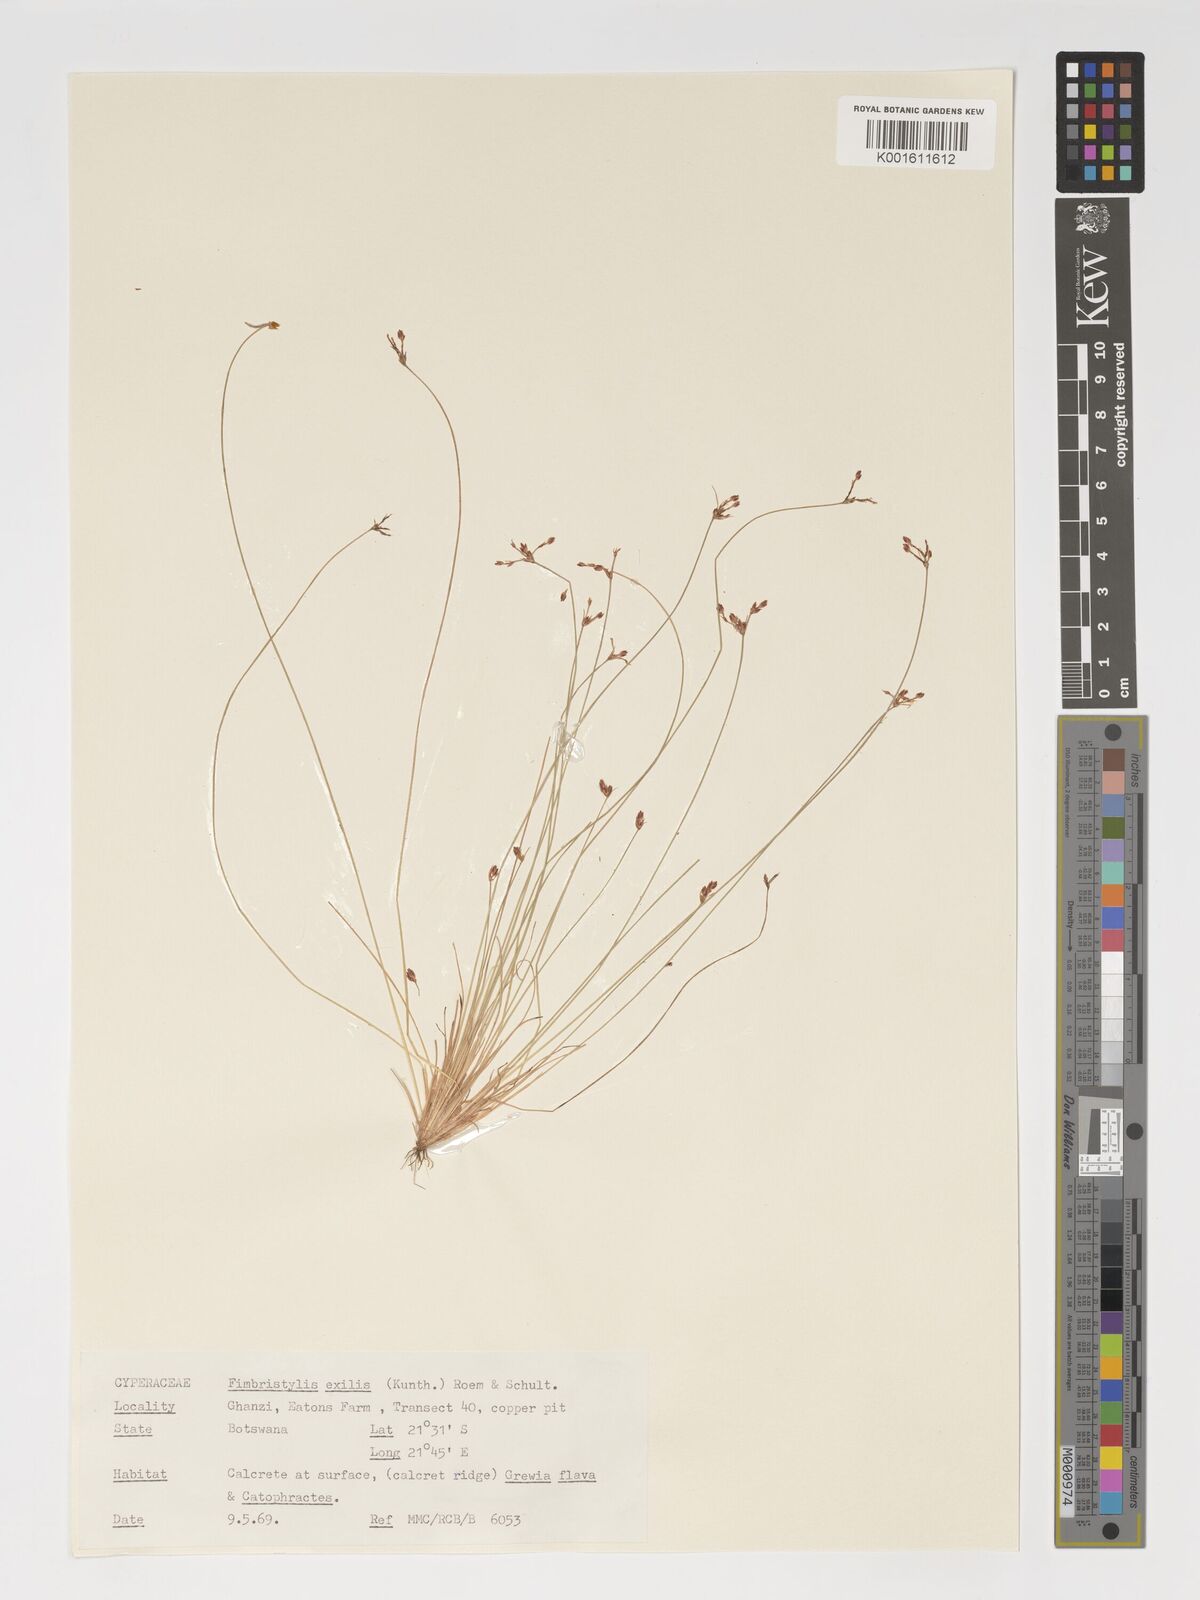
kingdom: Plantae
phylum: Tracheophyta
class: Liliopsida
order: Poales
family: Cyperaceae
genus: Bulbostylis
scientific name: Bulbostylis hispidula
